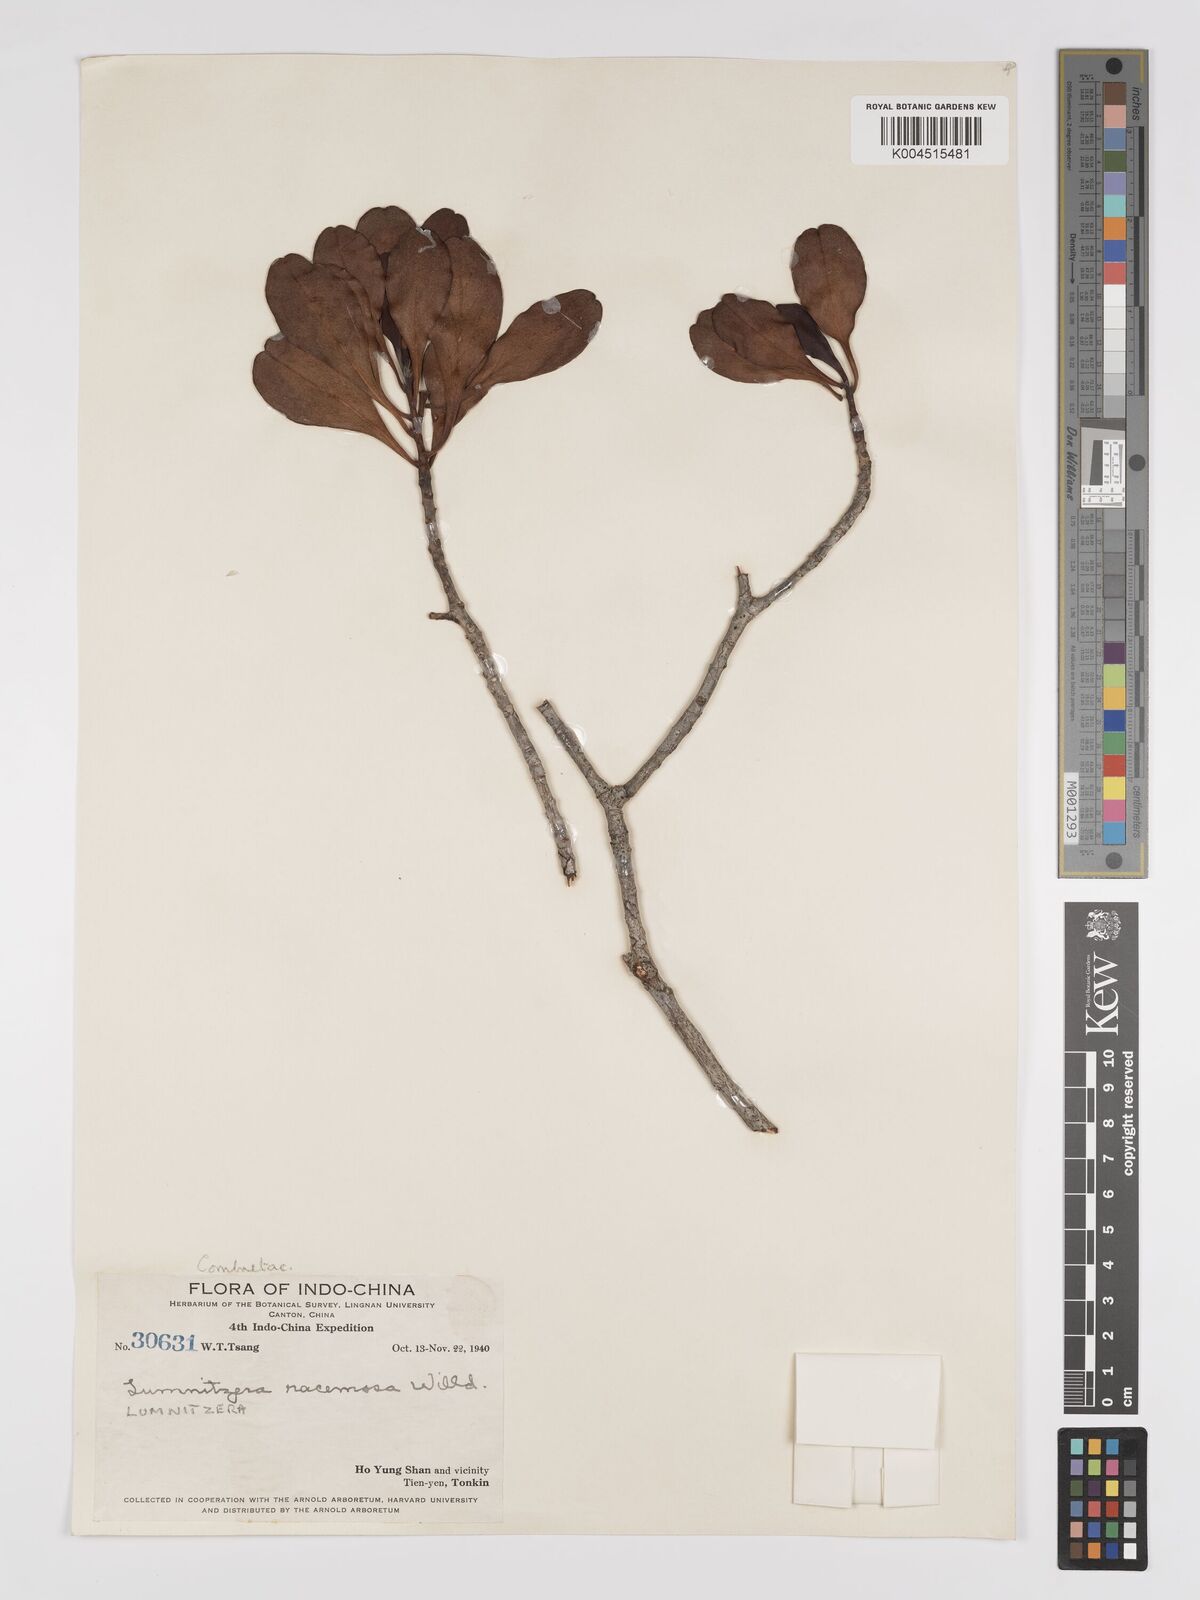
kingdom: Plantae
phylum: Tracheophyta
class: Magnoliopsida
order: Myrtales
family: Combretaceae
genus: Lumnitzera
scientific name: Lumnitzera racemosa
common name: White-flowered black mangrove
